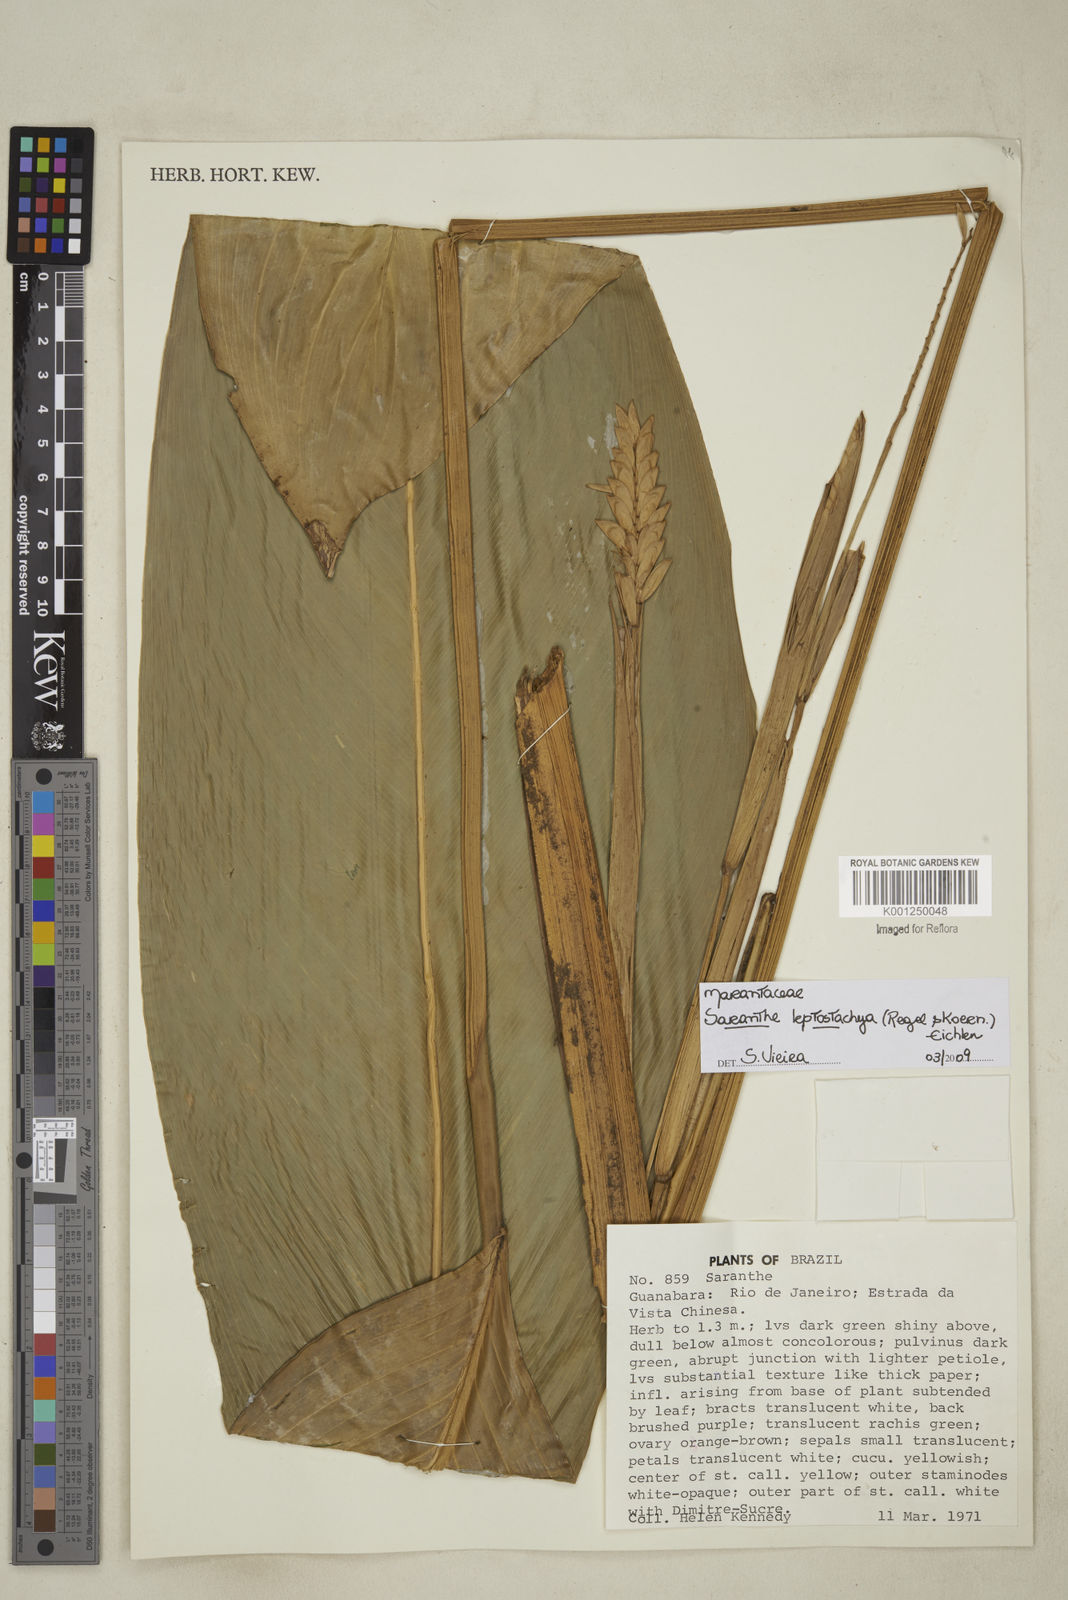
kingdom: Plantae
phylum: Tracheophyta
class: Liliopsida
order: Zingiberales
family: Marantaceae
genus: Saranthe
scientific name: Saranthe leptostachya
